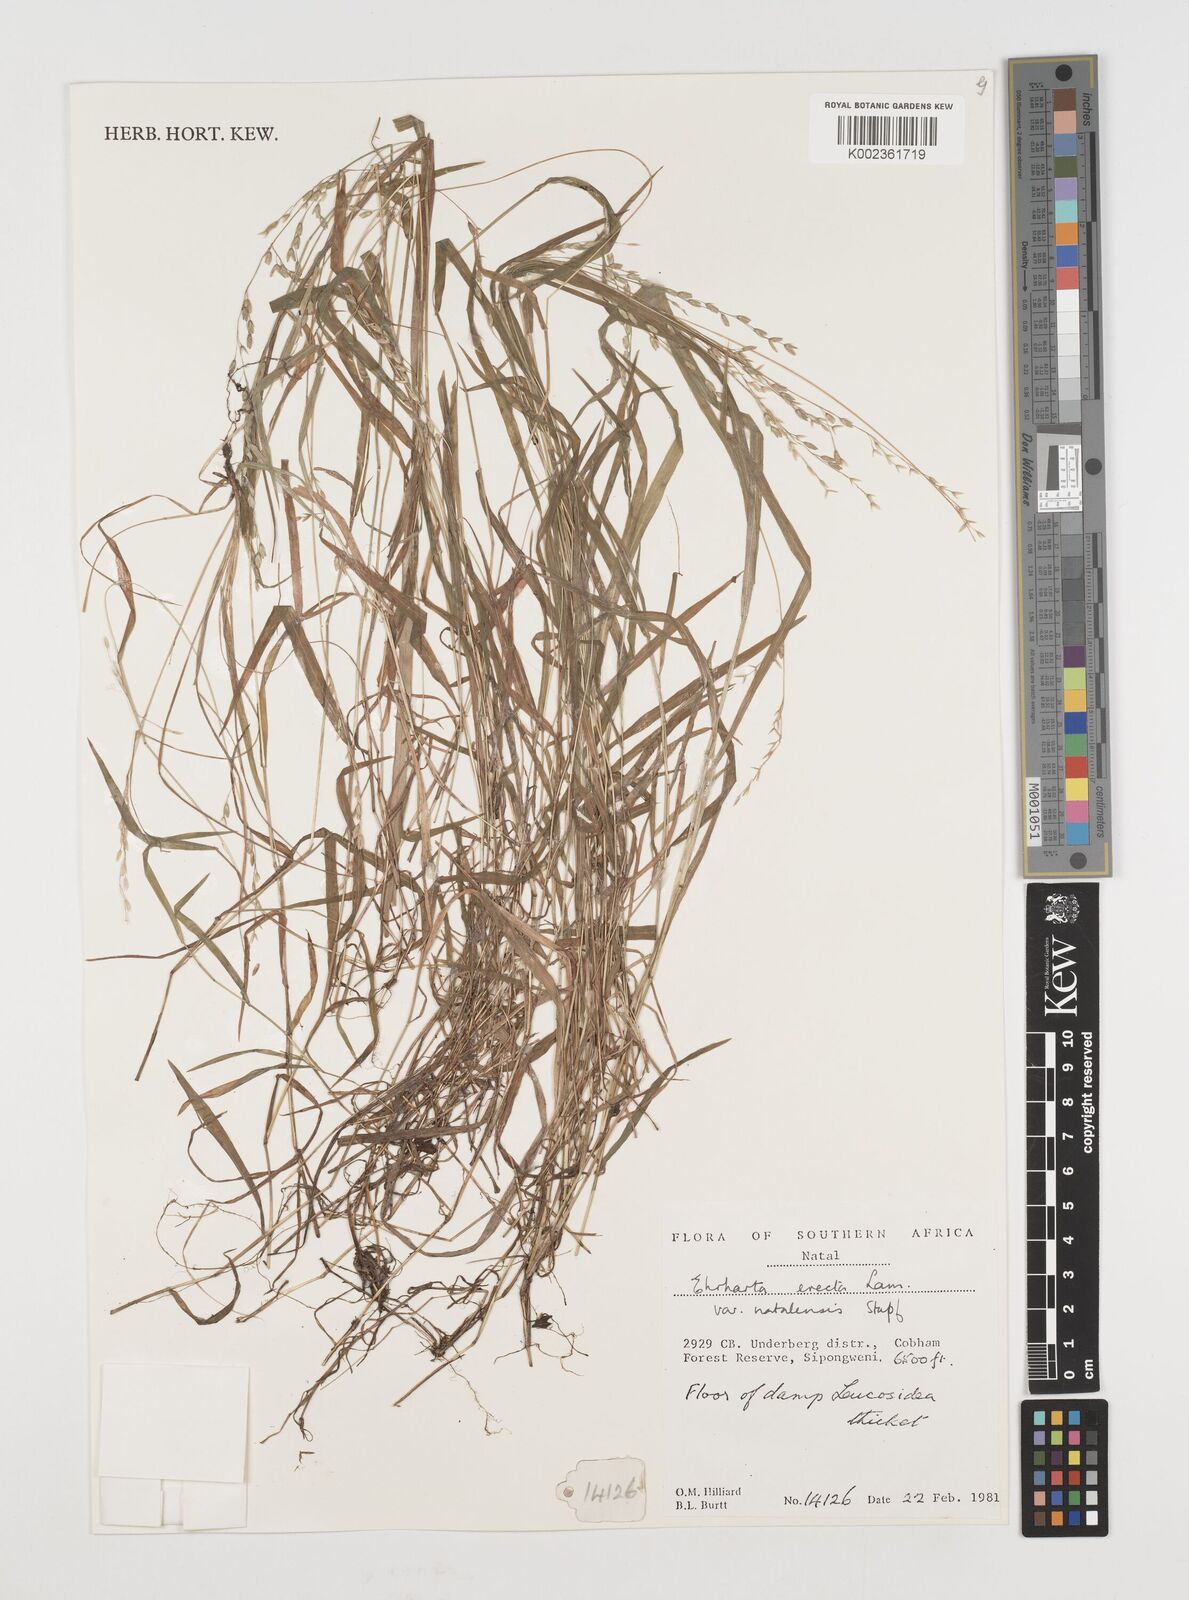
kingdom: Plantae
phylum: Tracheophyta
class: Liliopsida
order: Poales
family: Poaceae
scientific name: Poaceae
